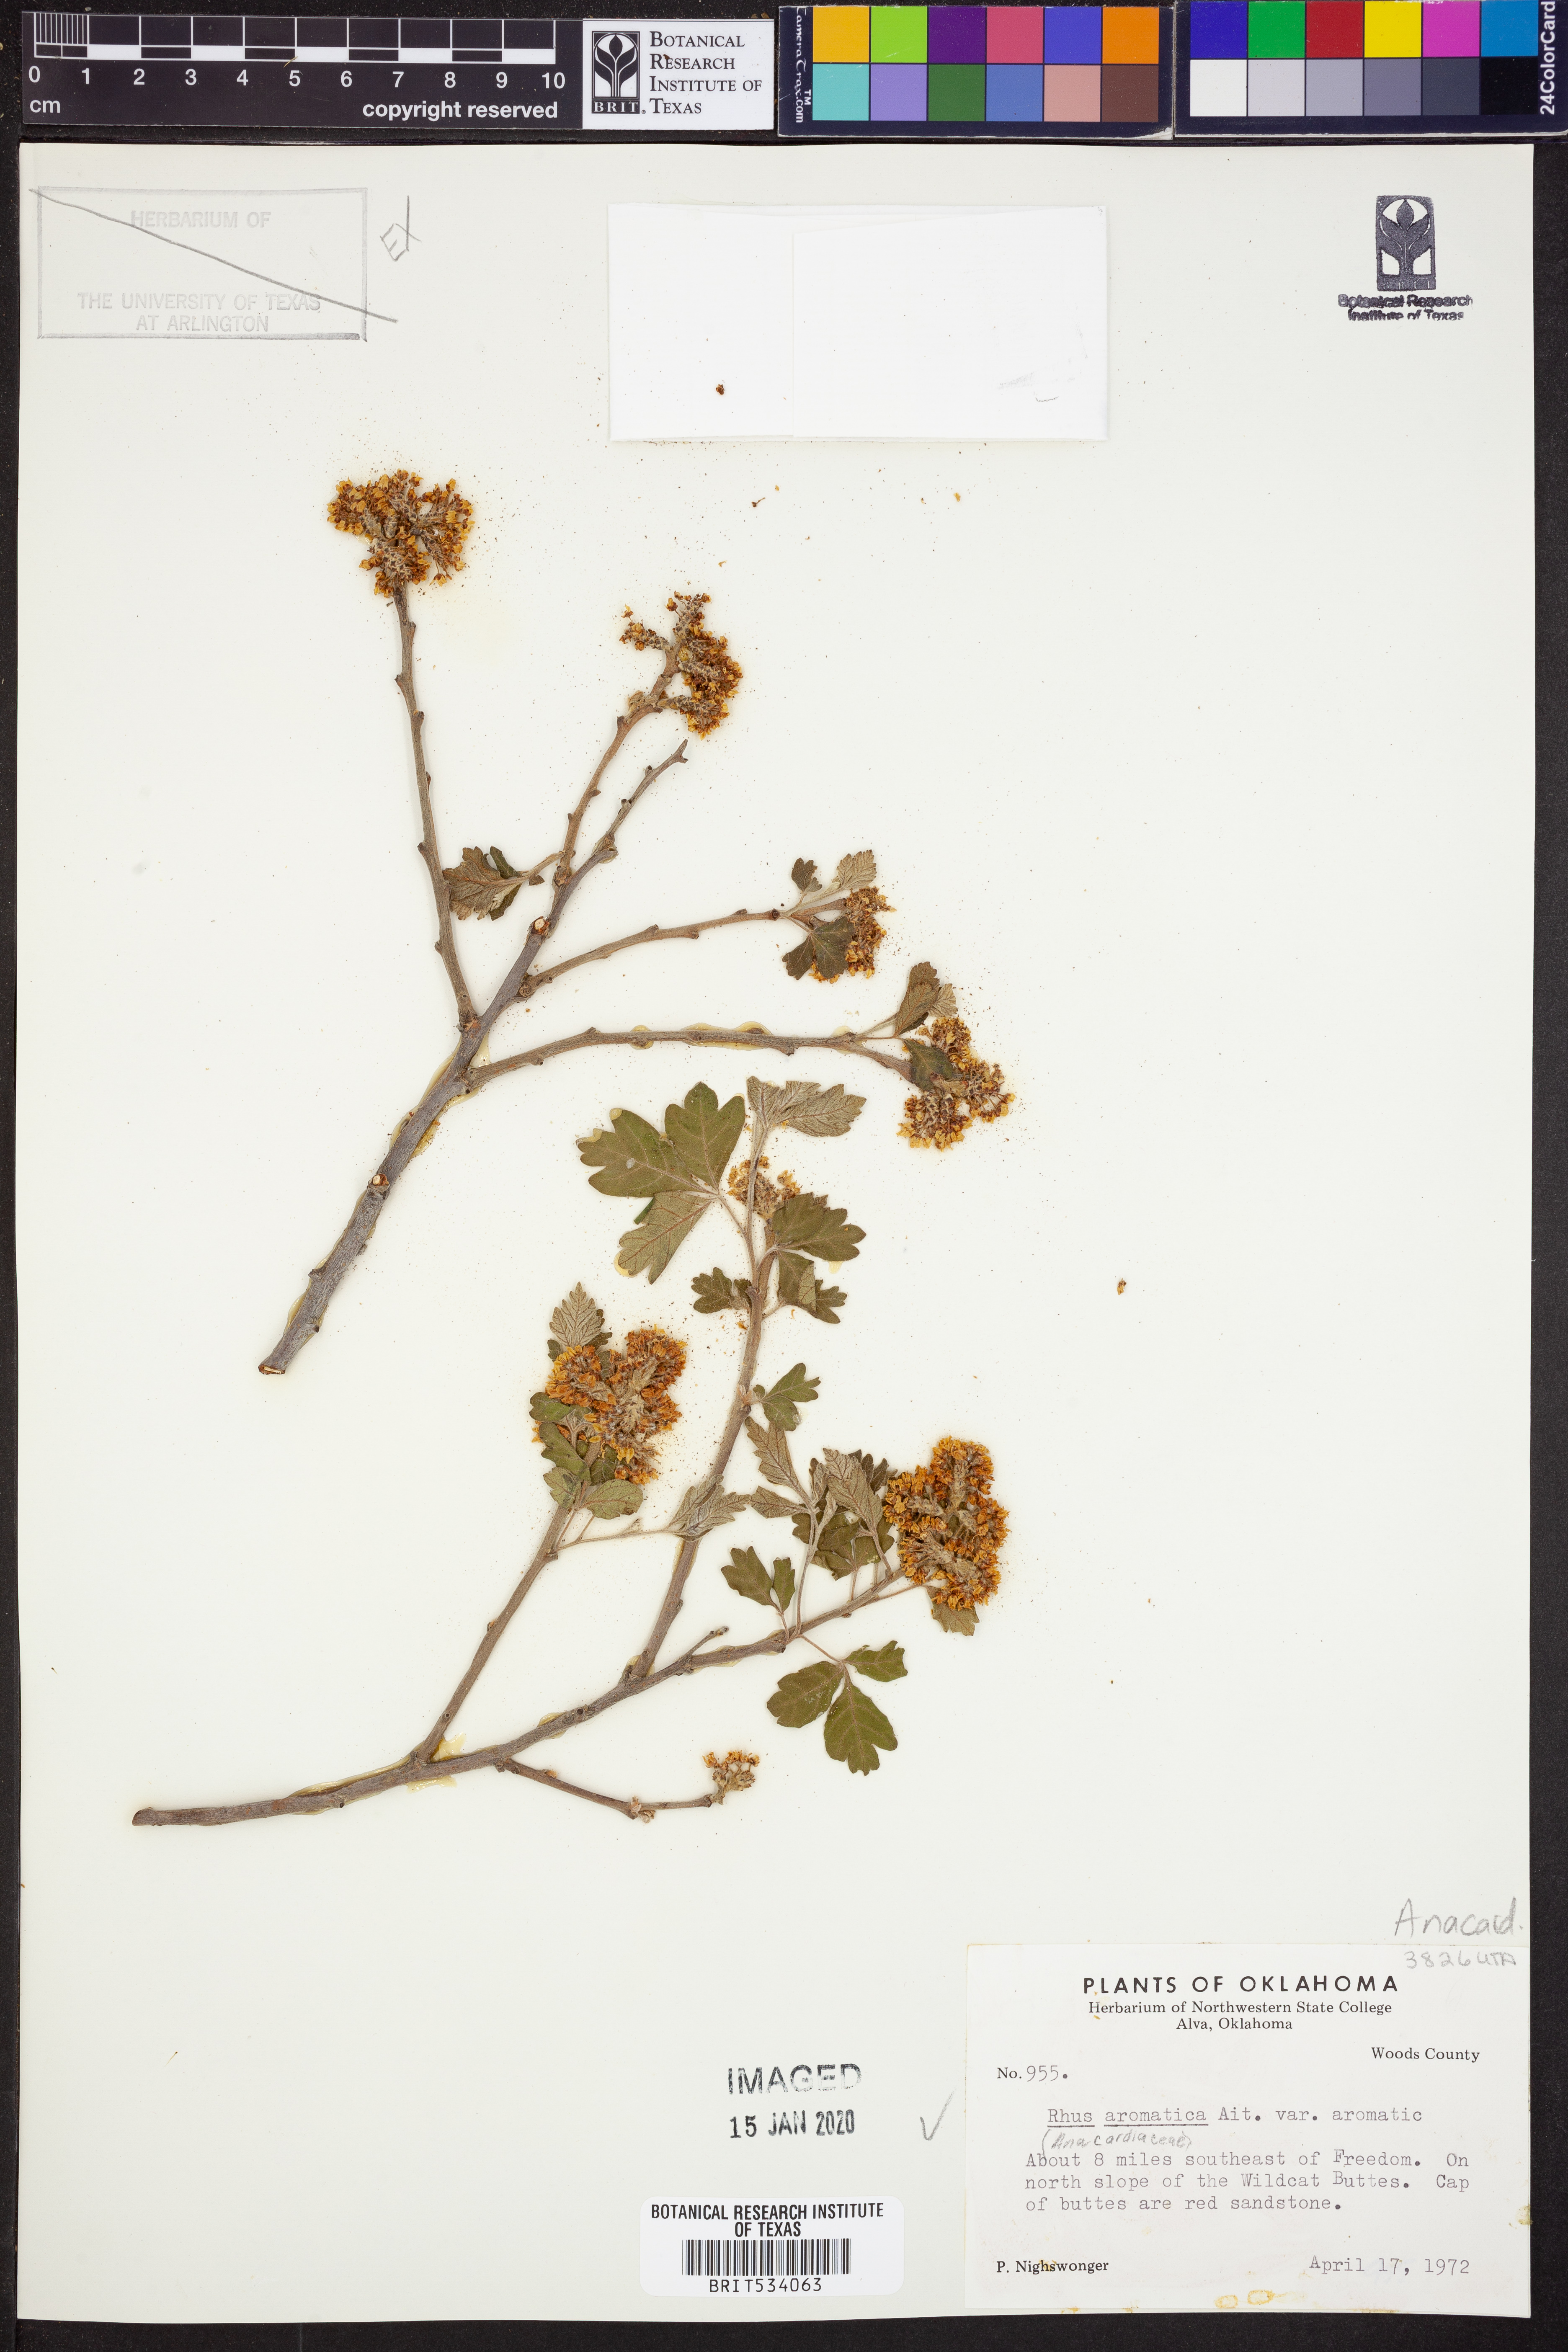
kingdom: Plantae
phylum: Tracheophyta
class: Magnoliopsida
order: Sapindales
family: Anacardiaceae
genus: Rhus
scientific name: Rhus aromatica
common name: Aromatic sumac
